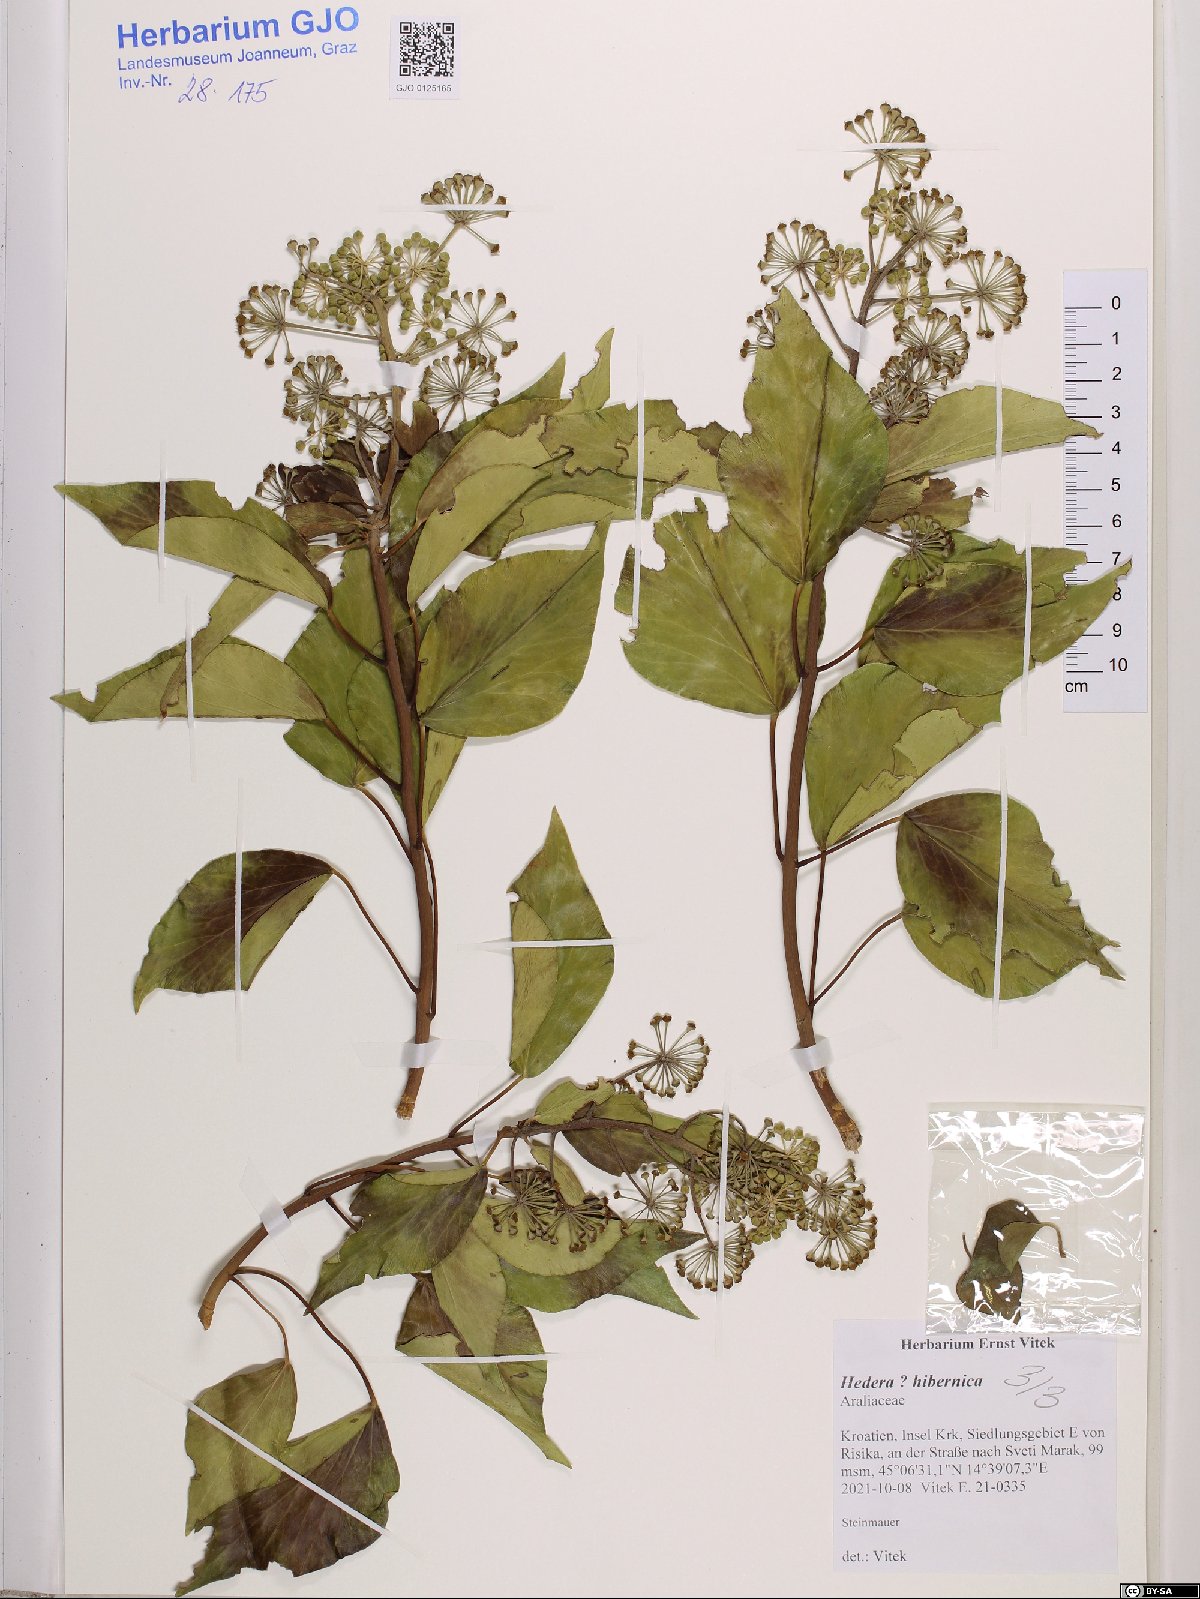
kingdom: Plantae
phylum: Tracheophyta
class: Magnoliopsida
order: Apiales
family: Araliaceae
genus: Hedera
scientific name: Hedera hibernica
